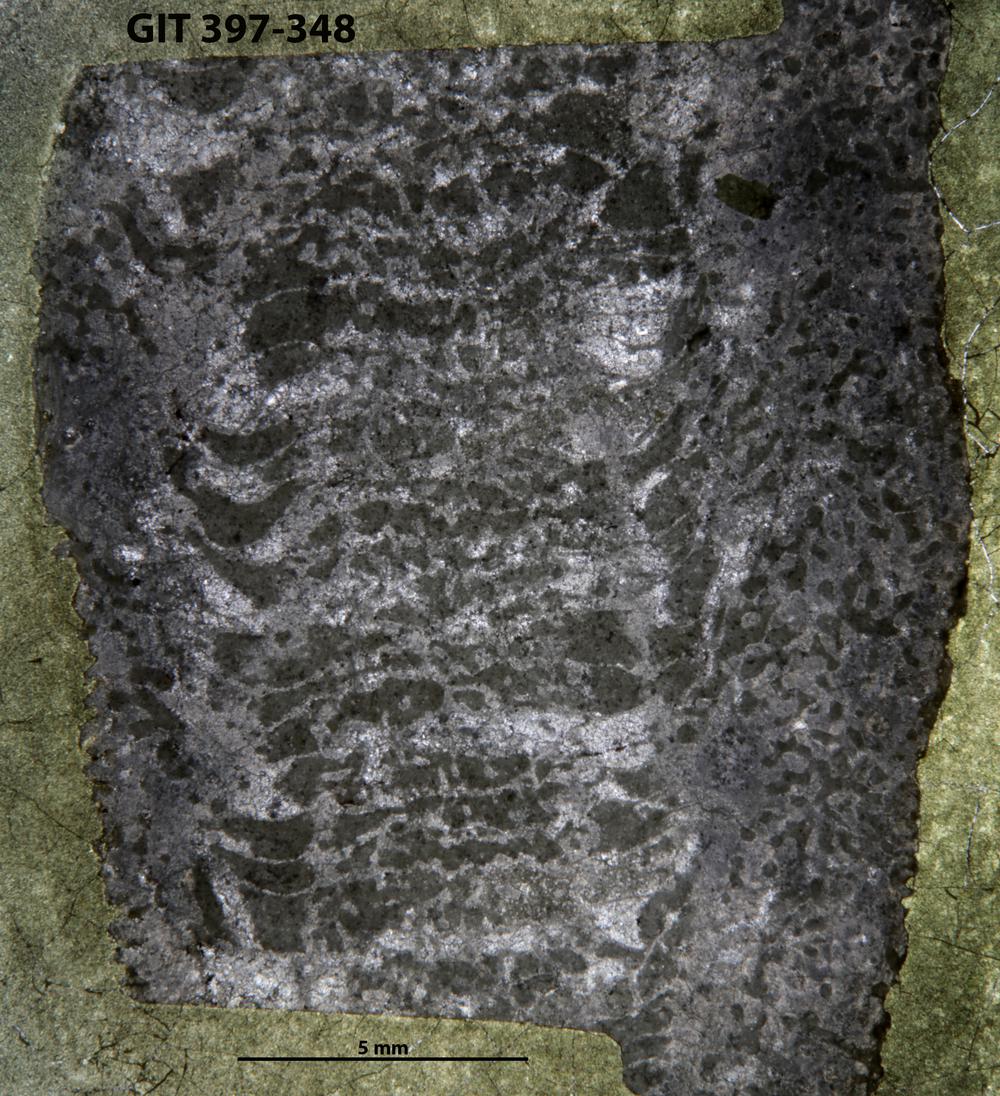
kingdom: Animalia
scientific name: Animalia
